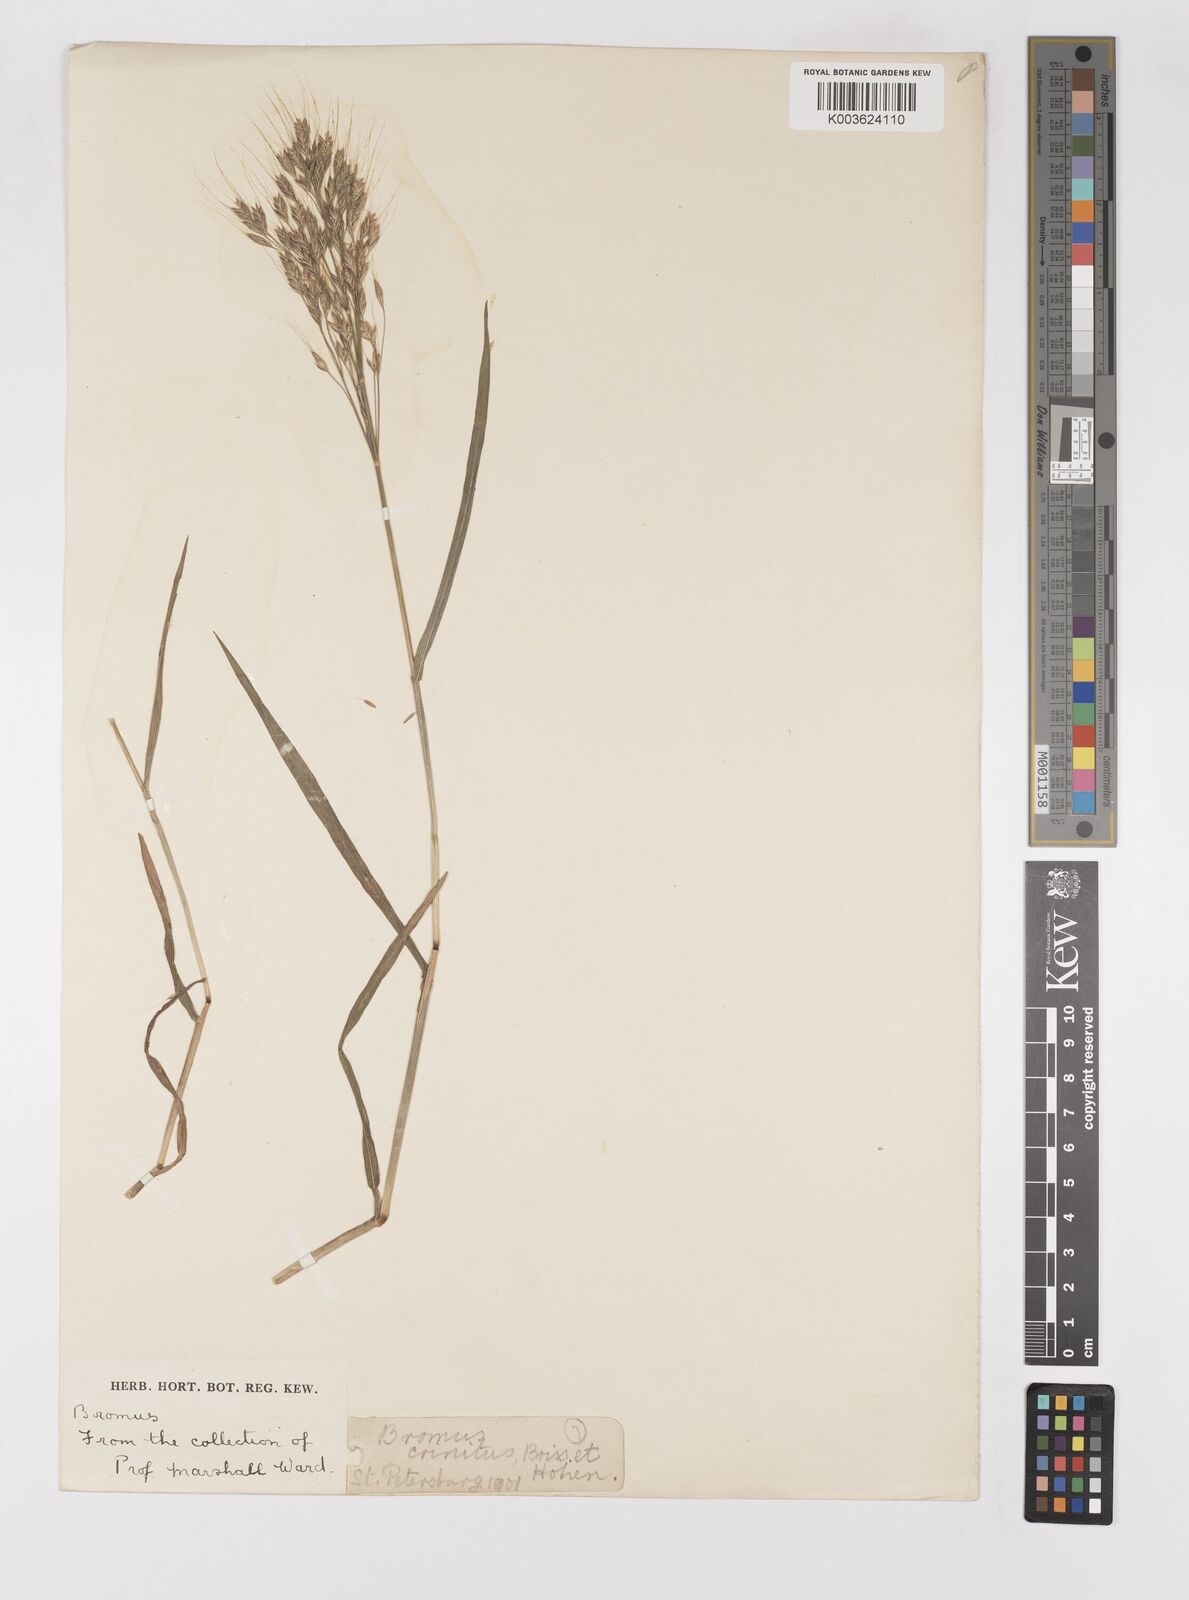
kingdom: Plantae
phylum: Tracheophyta
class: Liliopsida
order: Poales
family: Poaceae
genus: Bromus
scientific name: Bromus gracillimus
